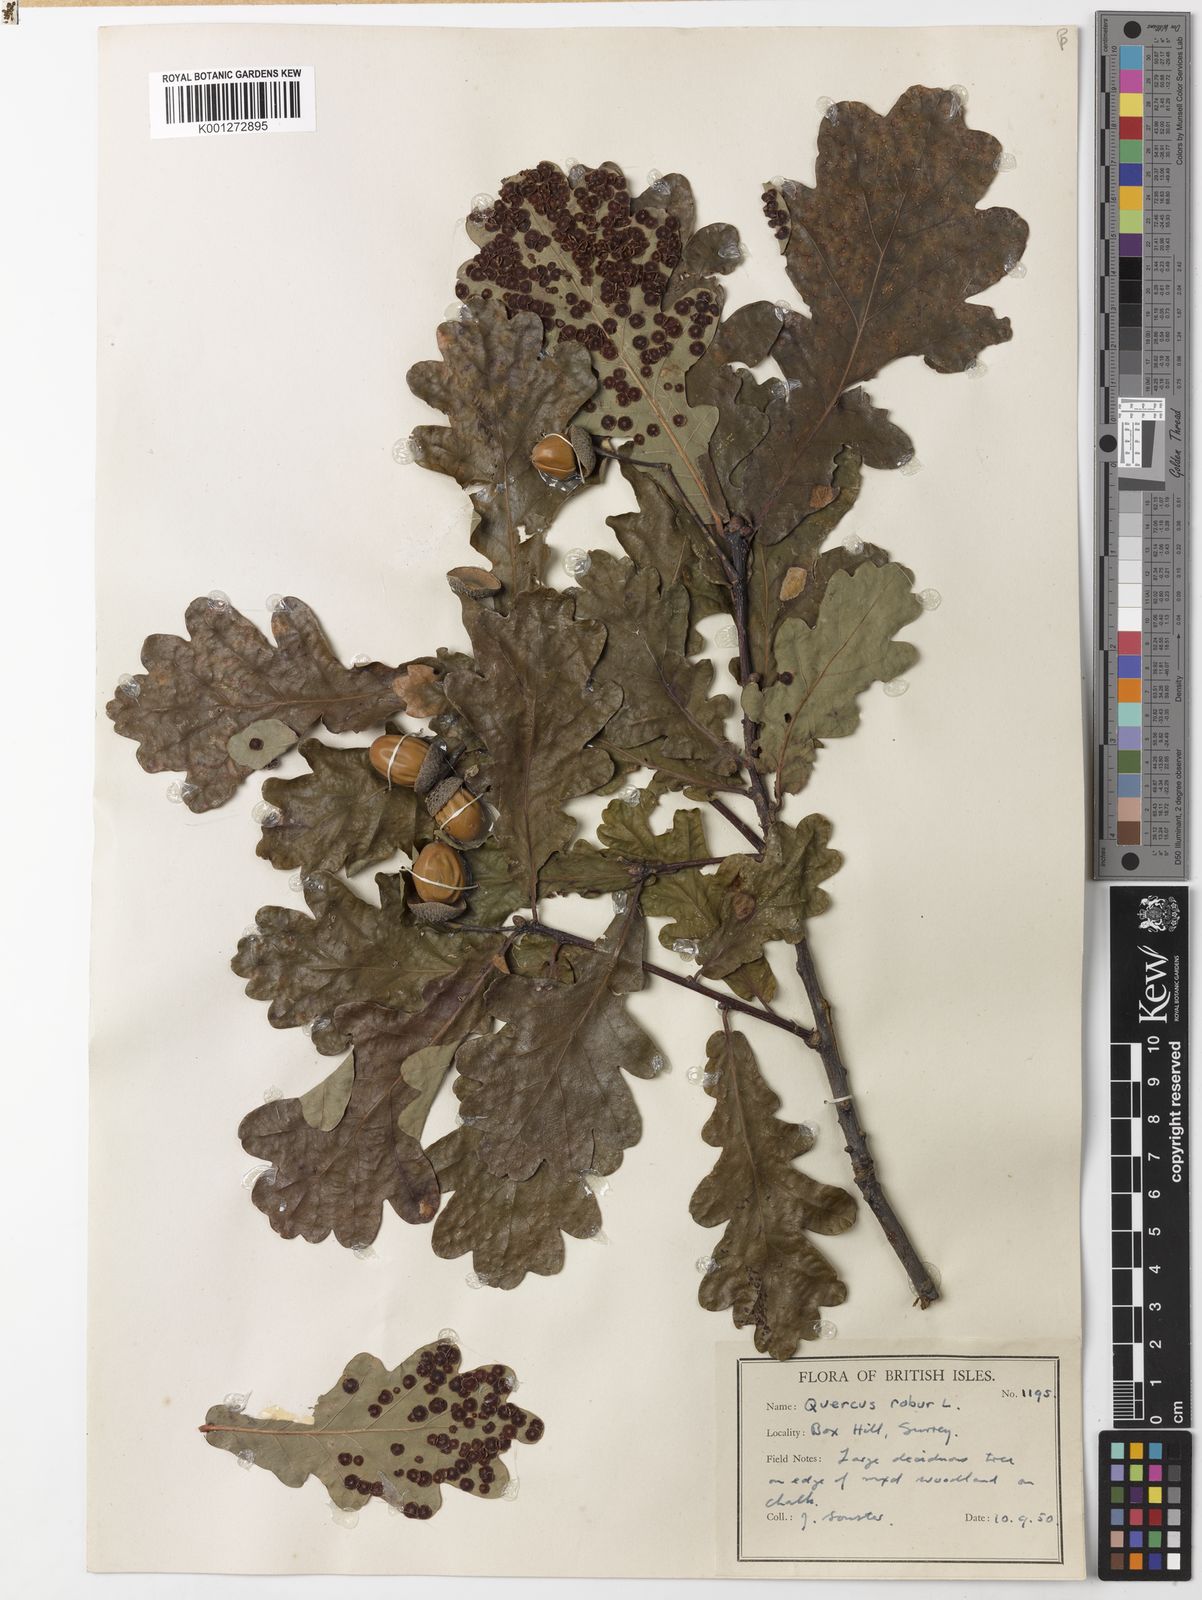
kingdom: Plantae
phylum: Tracheophyta
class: Magnoliopsida
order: Fagales
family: Fagaceae
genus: Quercus
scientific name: Quercus robur
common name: Pedunculate oak
